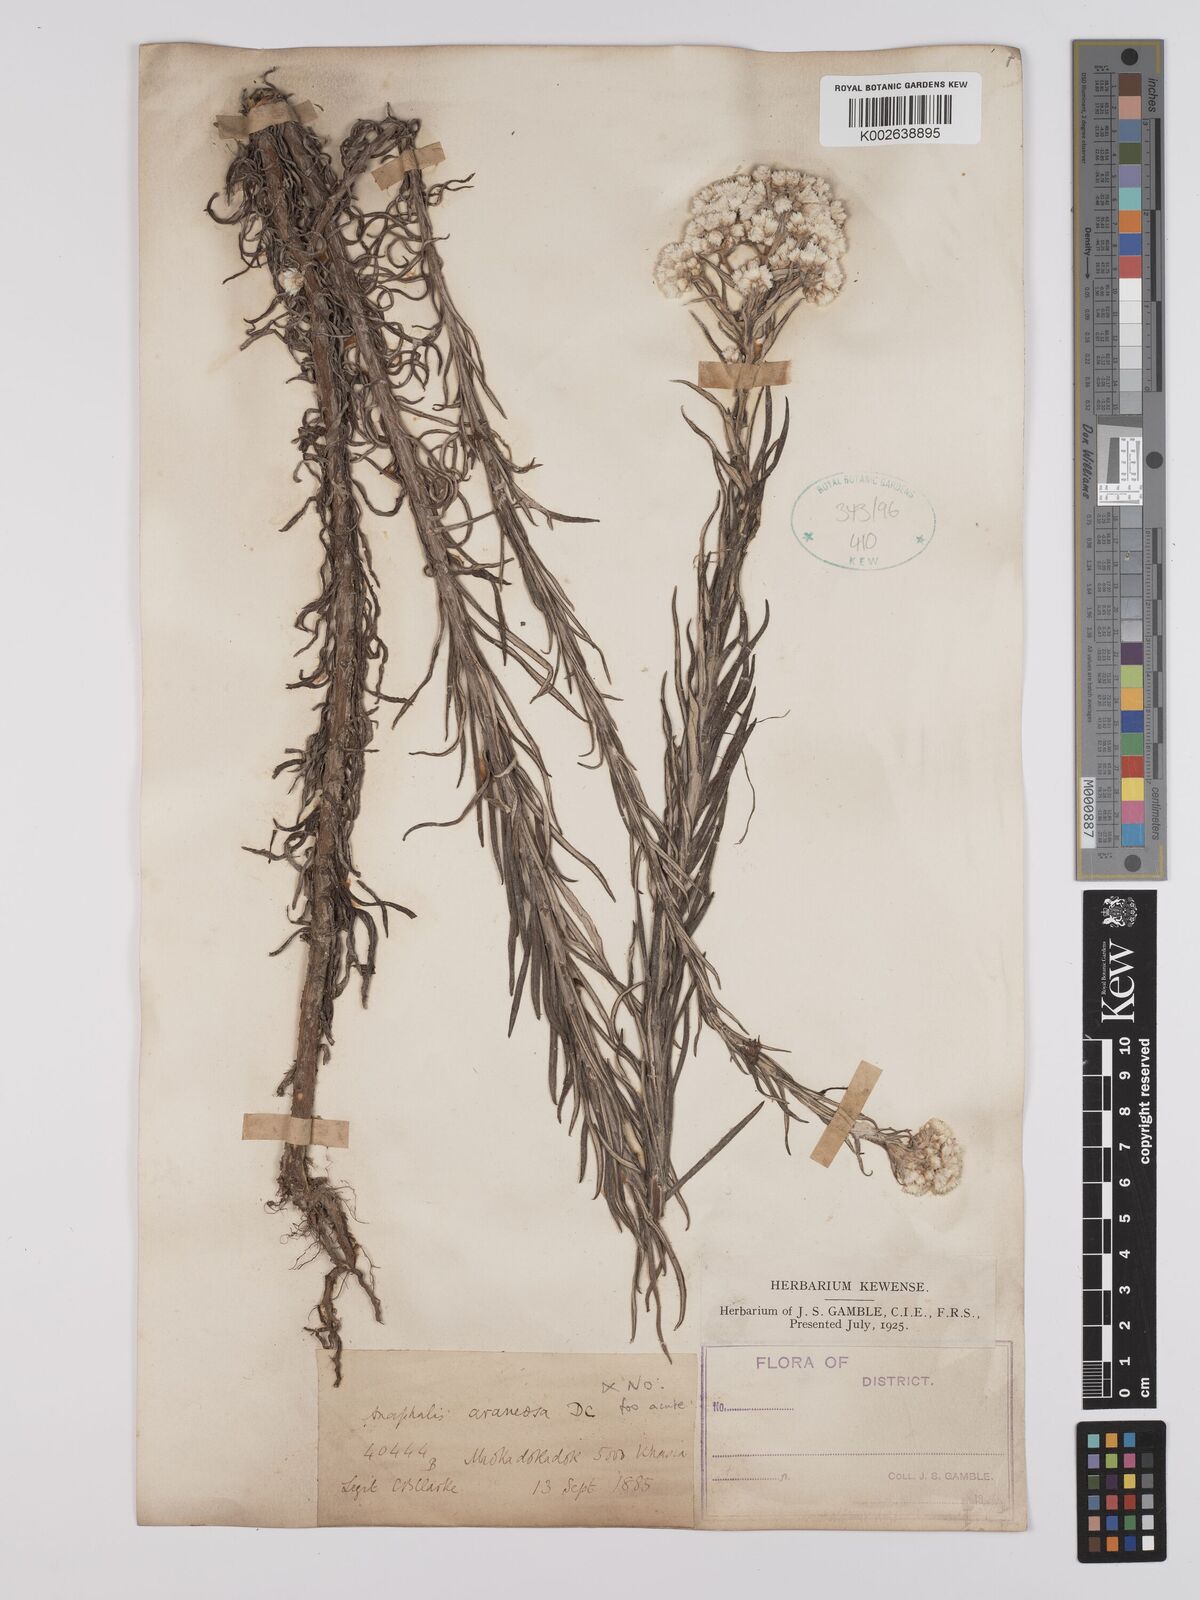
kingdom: Plantae
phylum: Tracheophyta
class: Magnoliopsida
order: Asterales
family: Asteraceae
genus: Anaphalis
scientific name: Anaphalis busua
